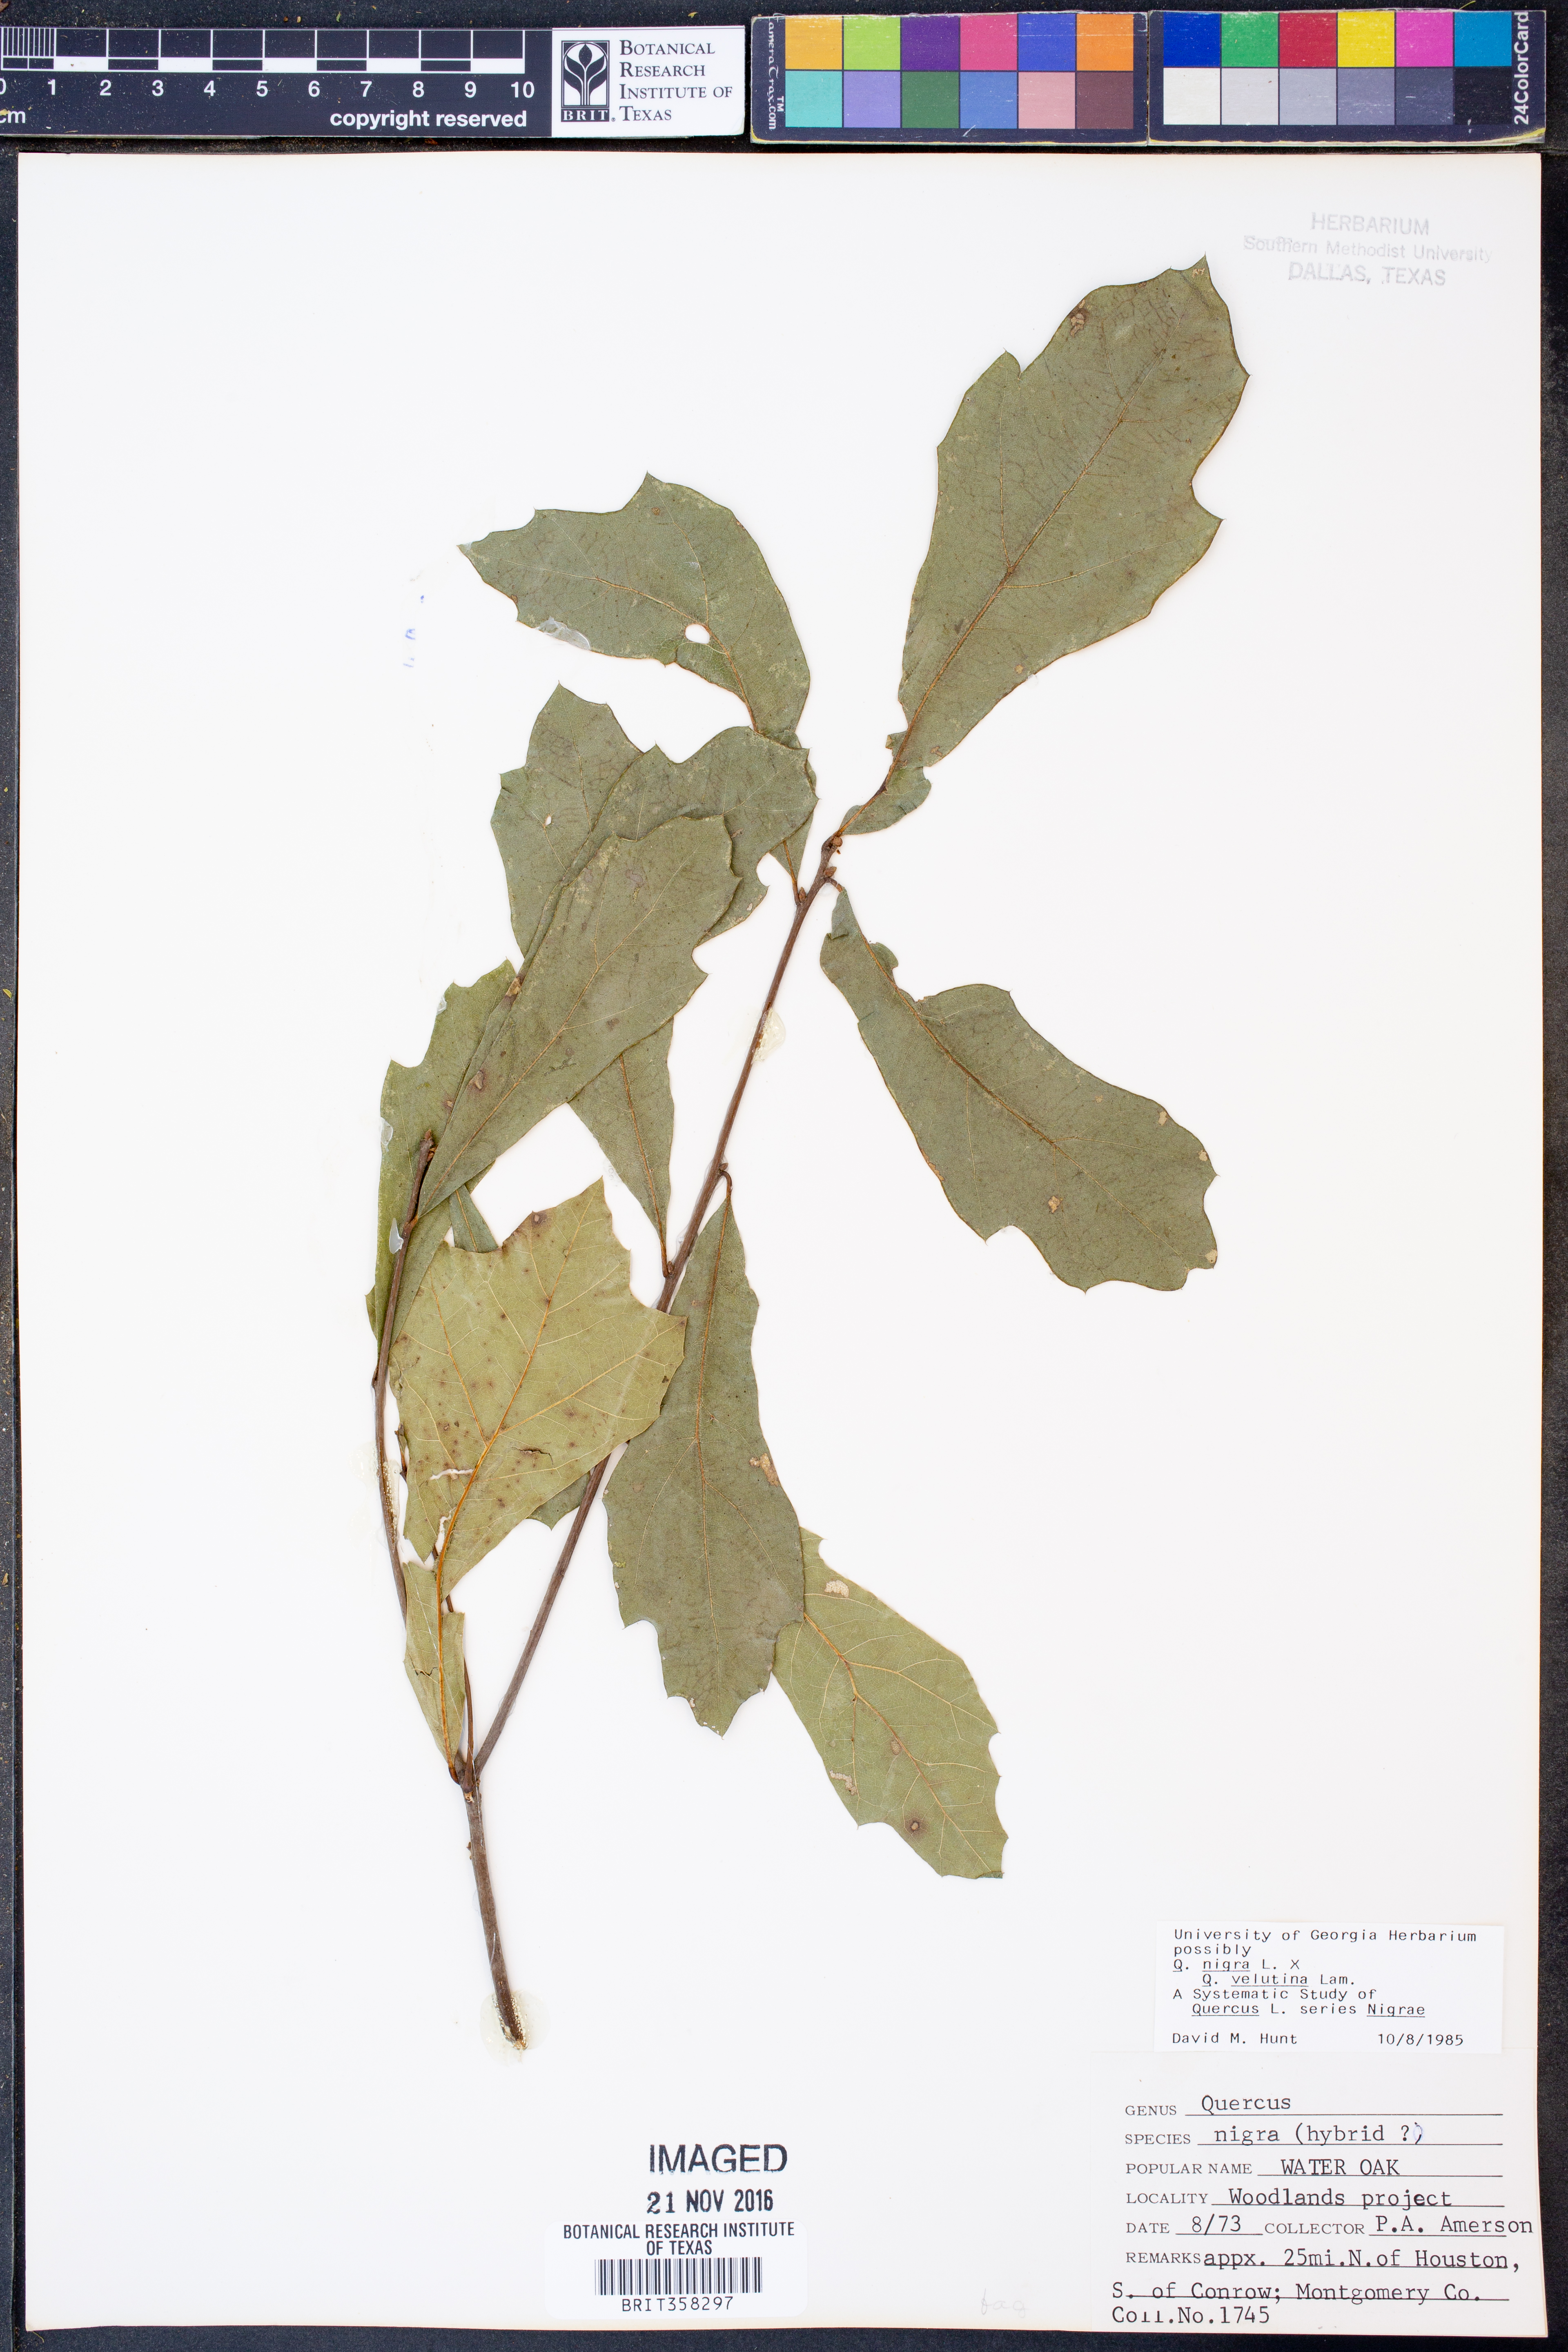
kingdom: Plantae
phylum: Tracheophyta
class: Magnoliopsida
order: Fagales
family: Fagaceae
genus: Quercus
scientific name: Quercus nigra
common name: Water oak
